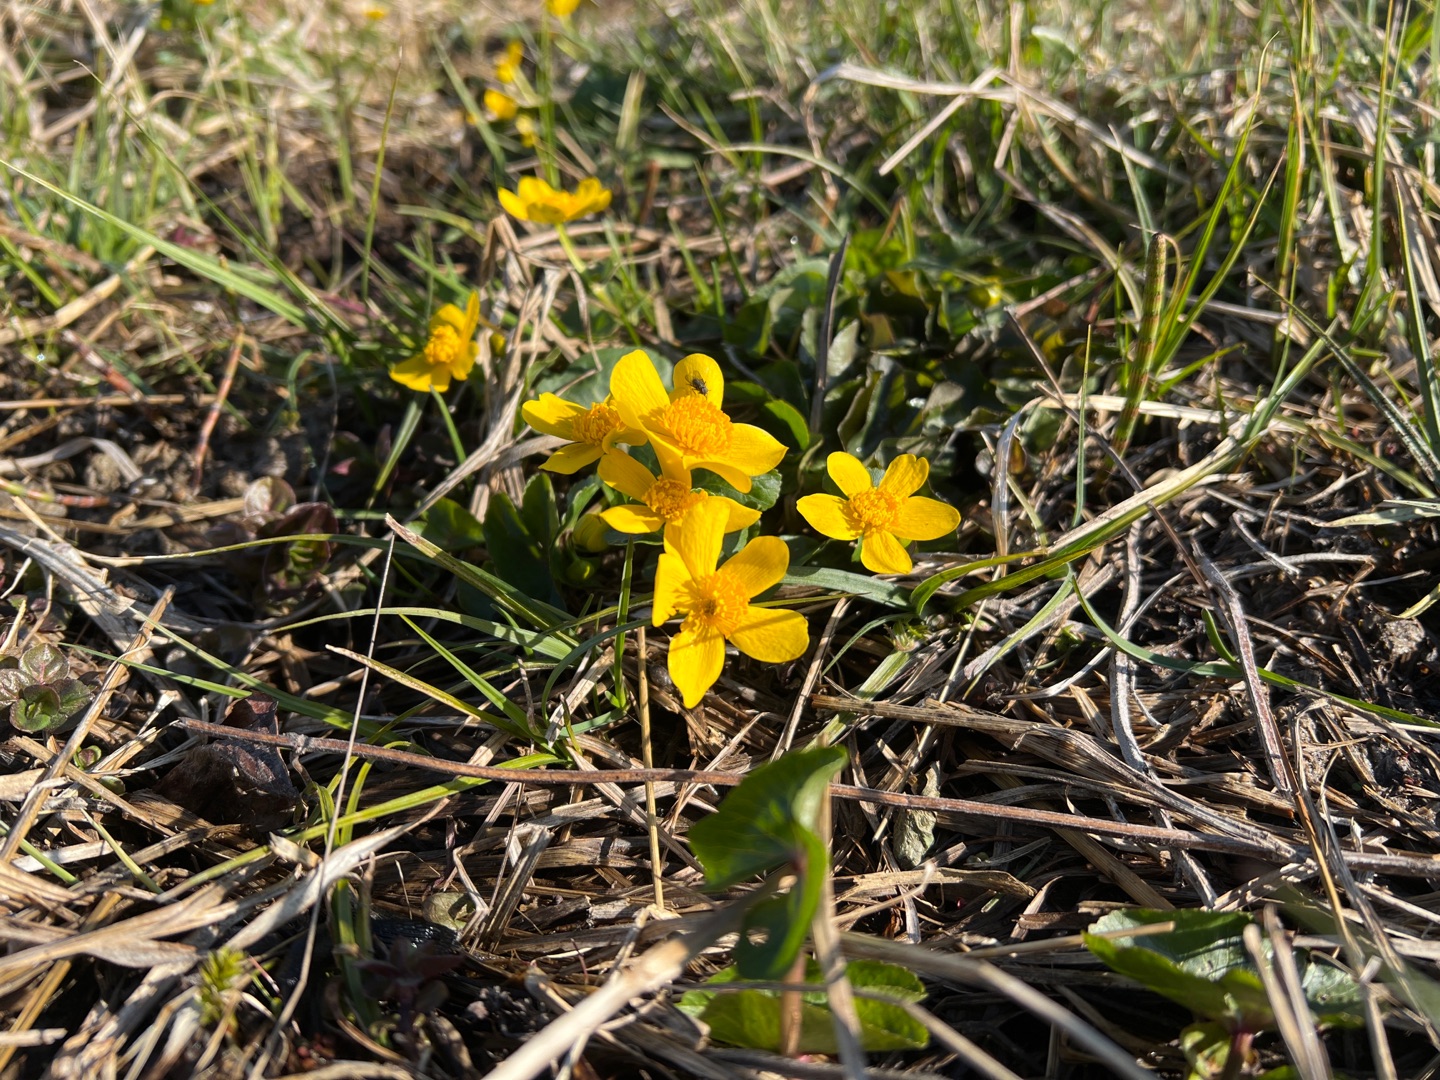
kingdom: Plantae
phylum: Tracheophyta
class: Magnoliopsida
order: Ranunculales
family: Ranunculaceae
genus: Caltha
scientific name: Caltha palustris
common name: Eng-kabbeleje
